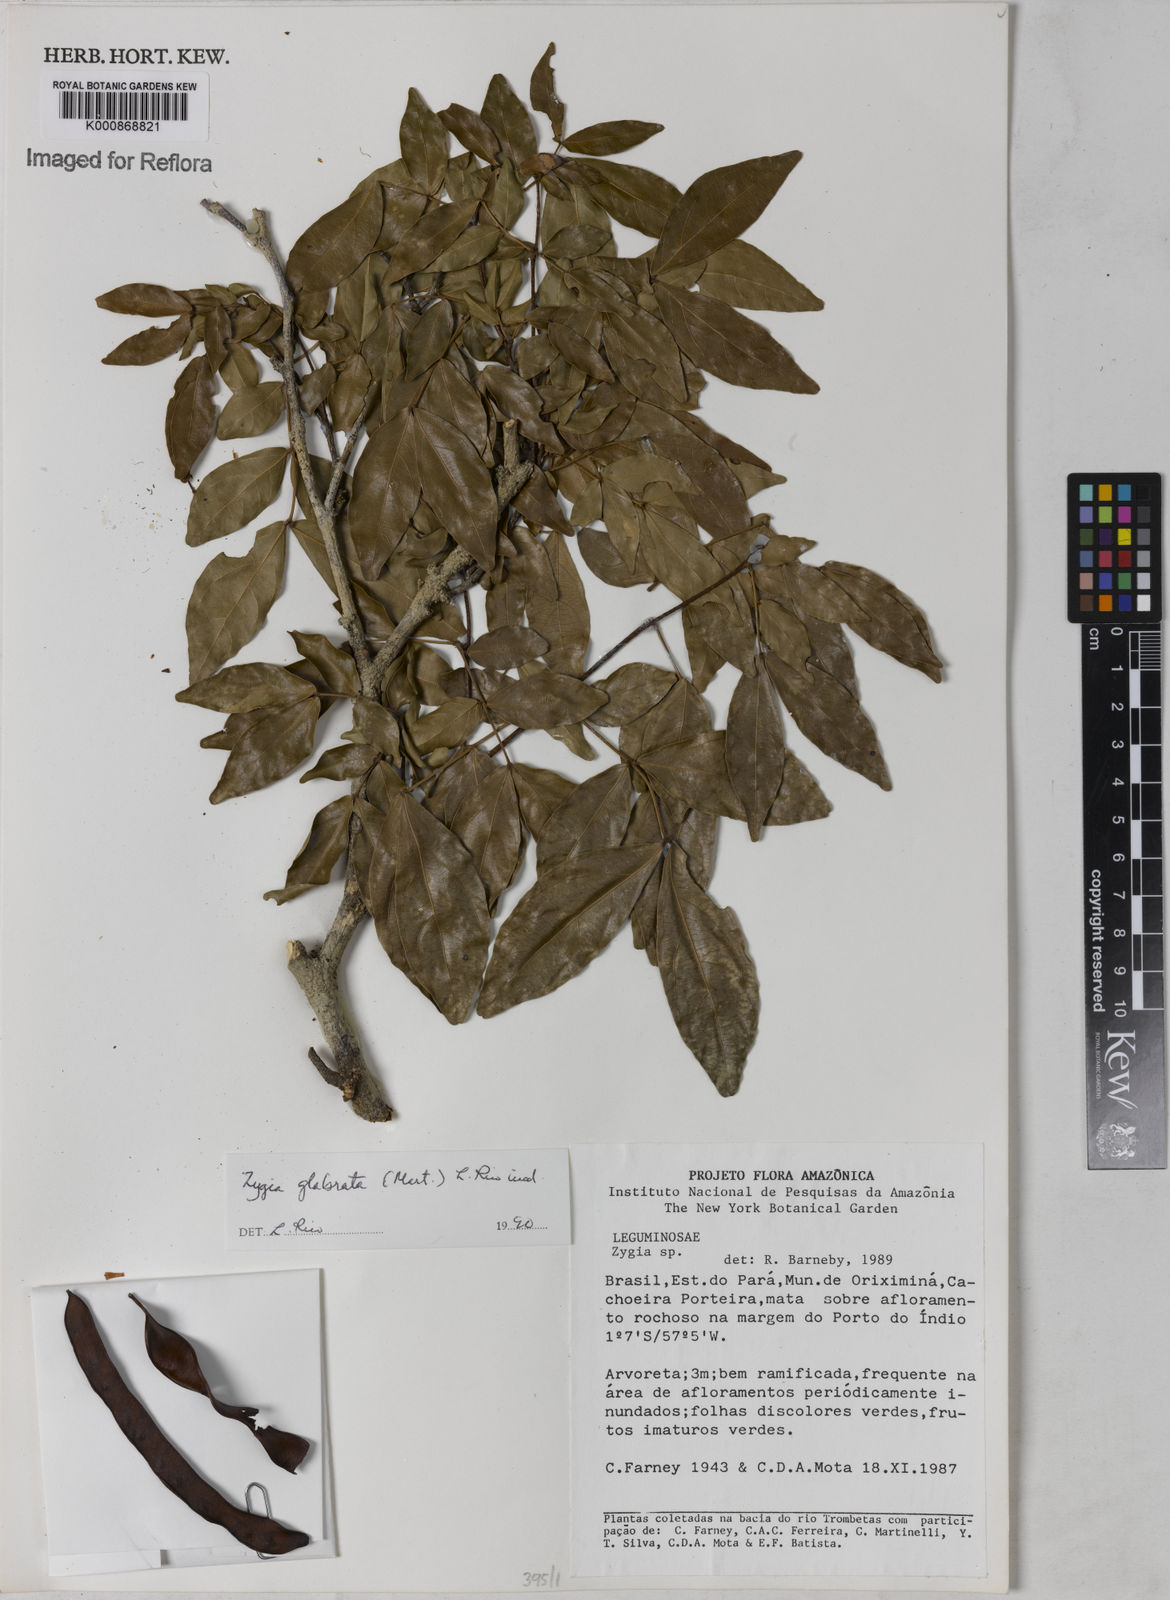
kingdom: Plantae
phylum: Tracheophyta
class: Magnoliopsida
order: Fabales
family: Fabaceae
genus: Zygia
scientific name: Zygia cauliflora
